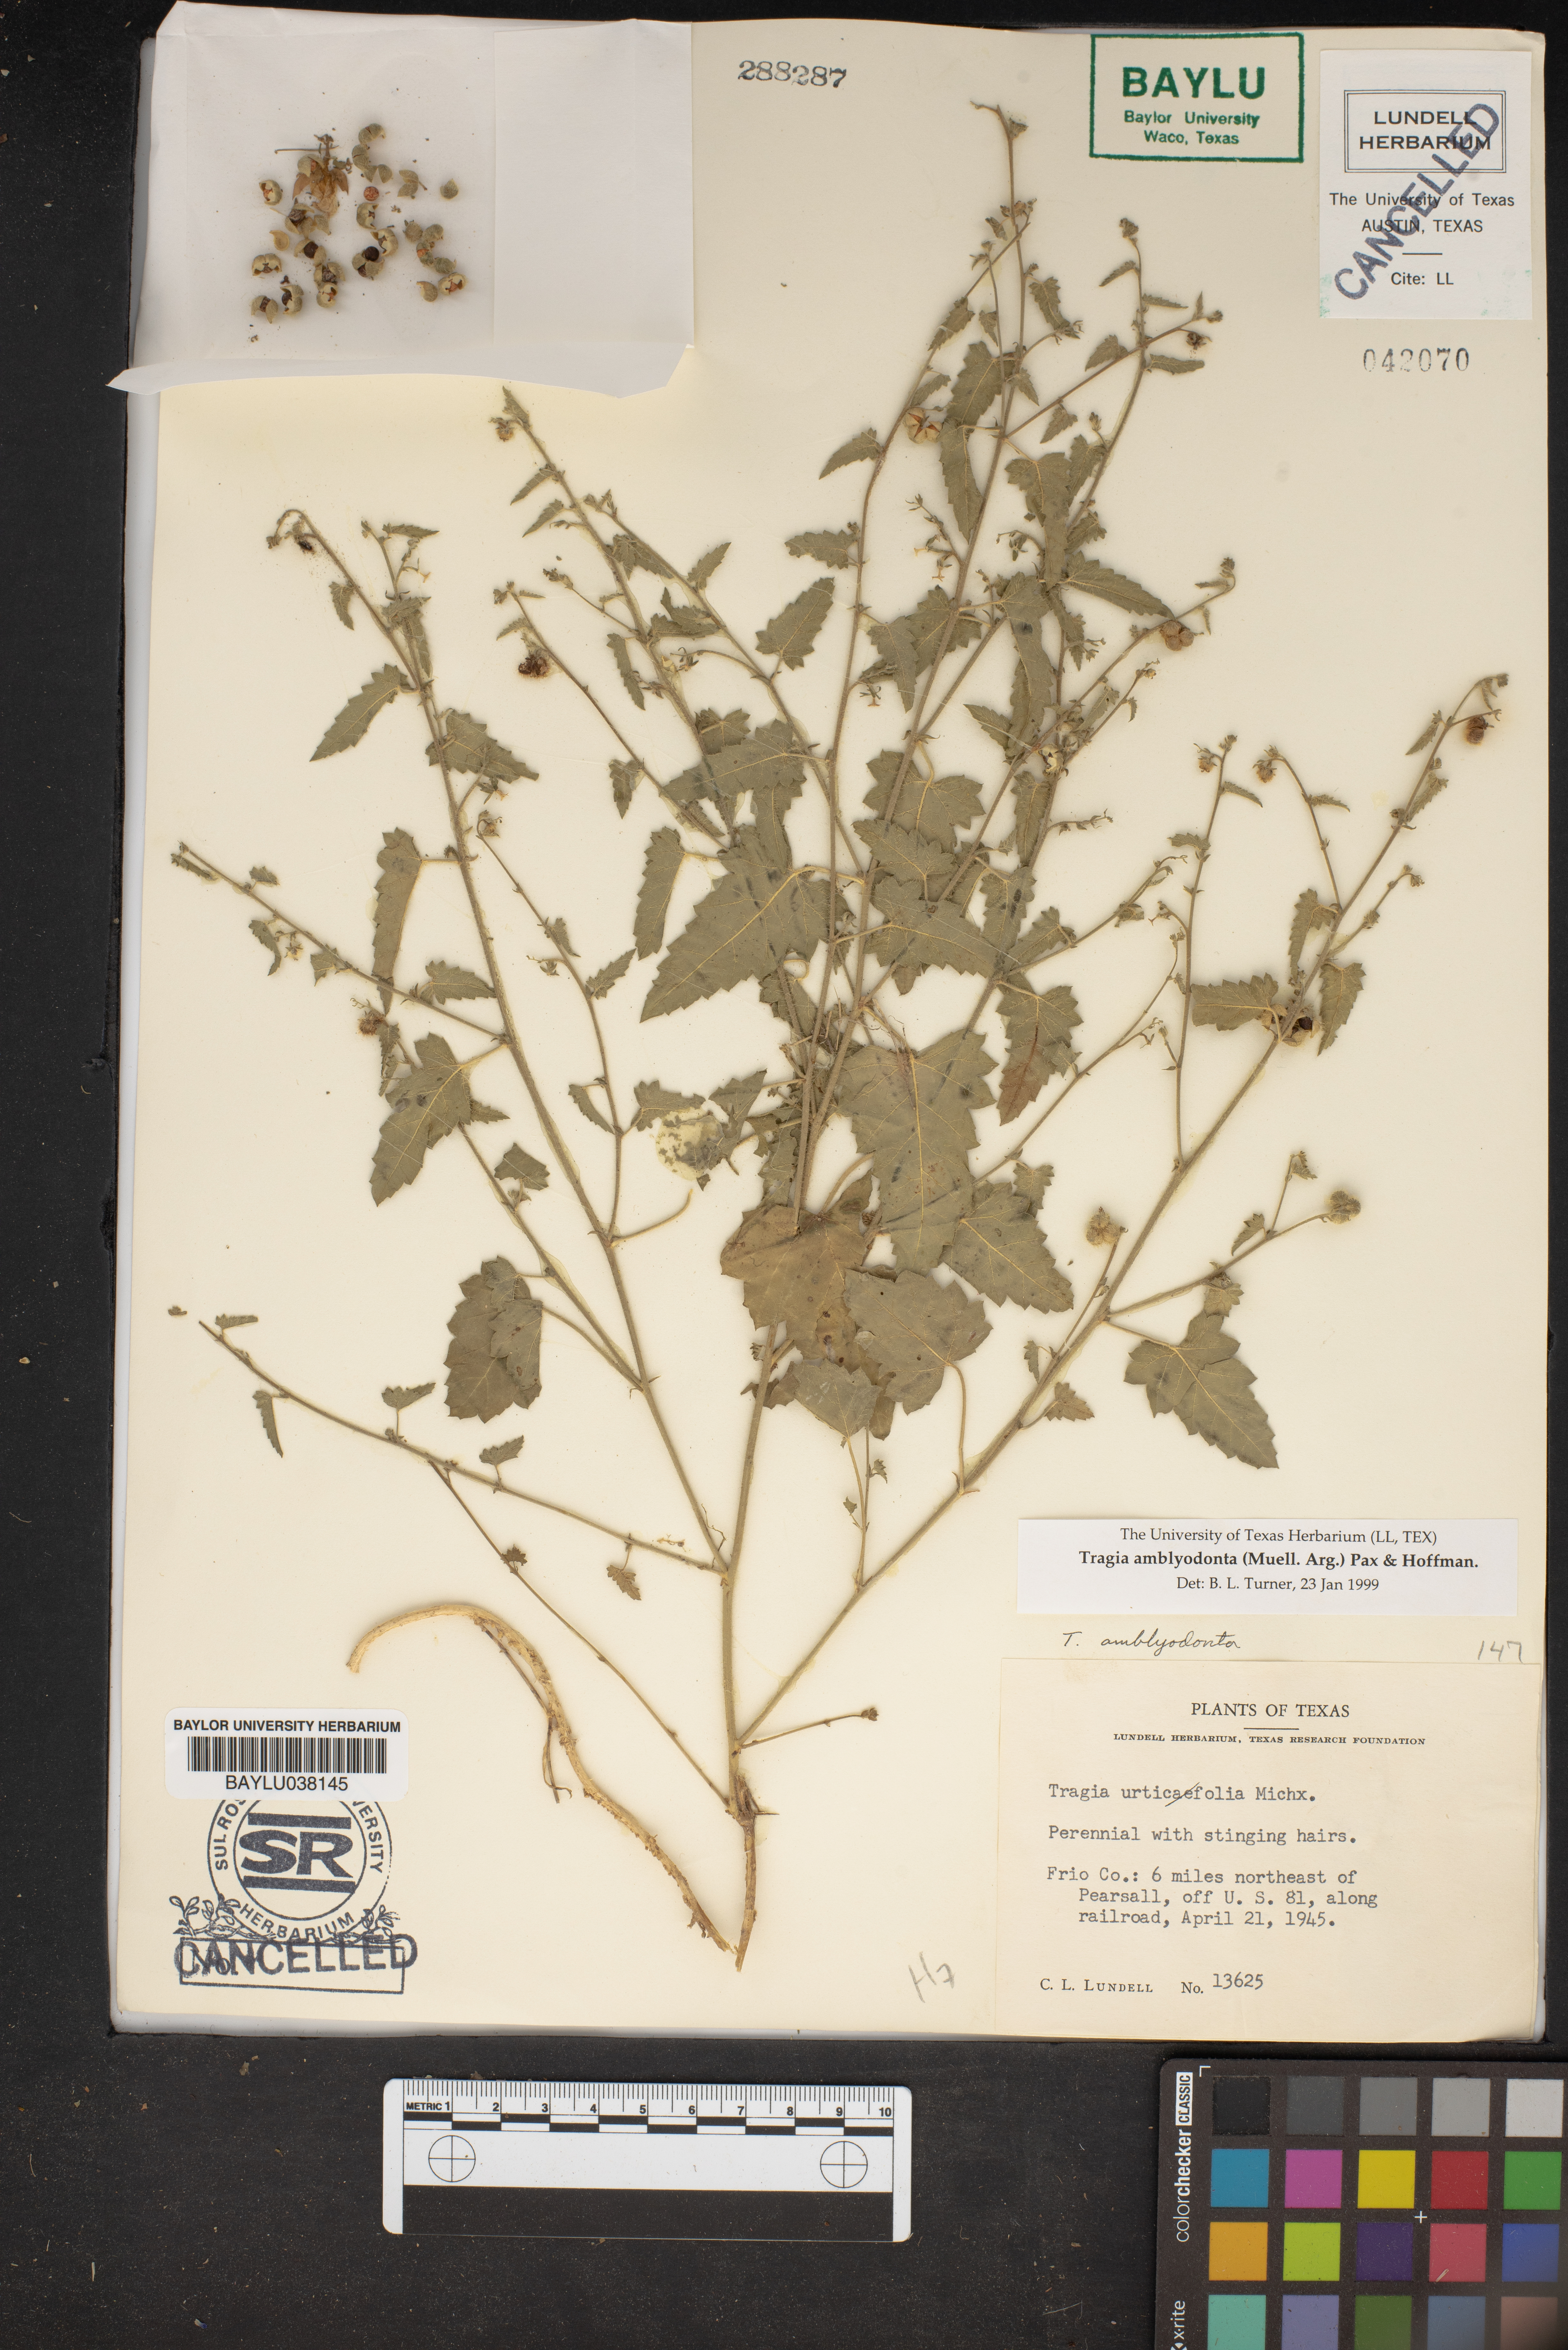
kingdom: Plantae
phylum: Tracheophyta
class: Magnoliopsida
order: Malpighiales
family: Euphorbiaceae
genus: Tragia
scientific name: Tragia amblyodonta
